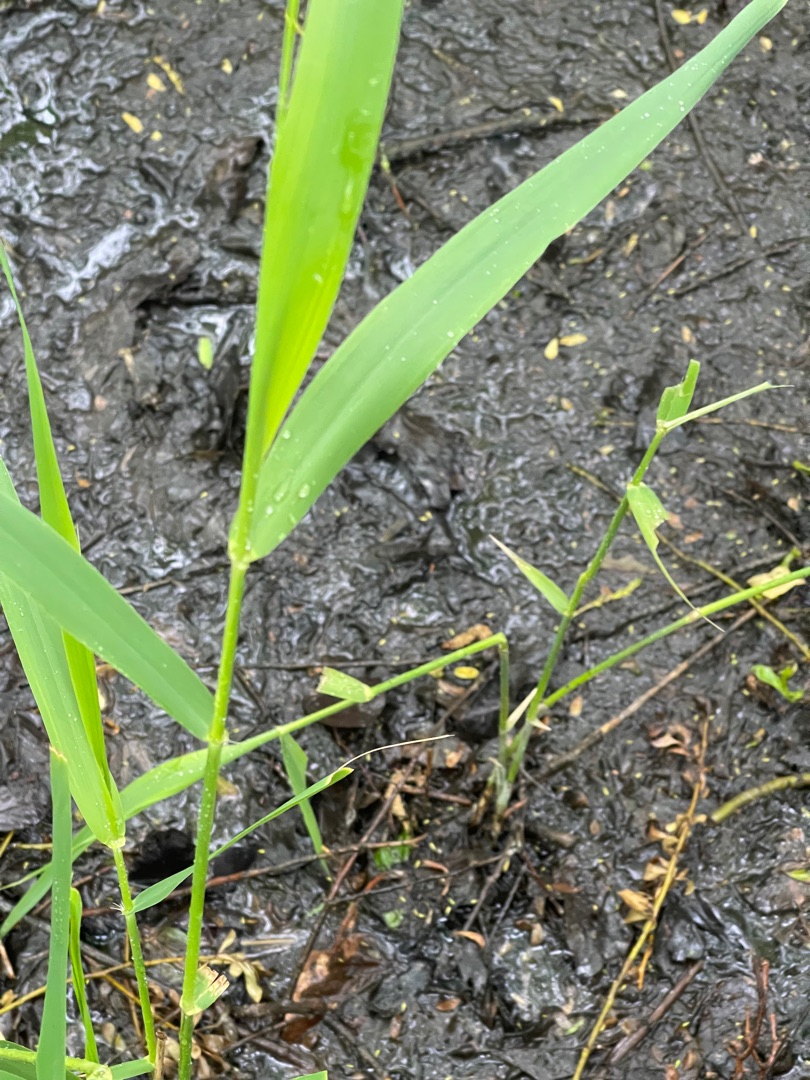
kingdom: Plantae
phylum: Tracheophyta
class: Liliopsida
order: Poales
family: Poaceae
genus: Phragmites
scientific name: Phragmites australis
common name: Tagrør
